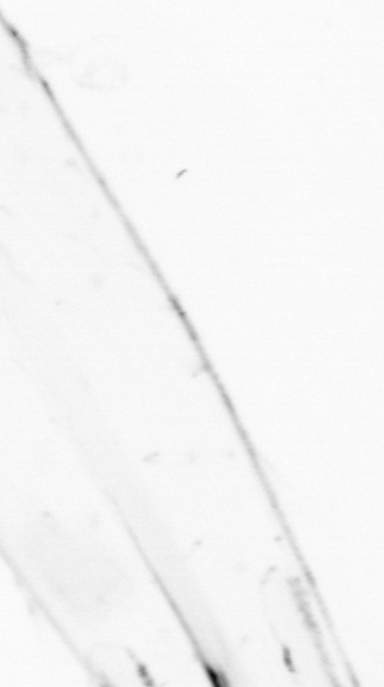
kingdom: Animalia
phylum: Chaetognatha
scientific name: Chaetognatha
